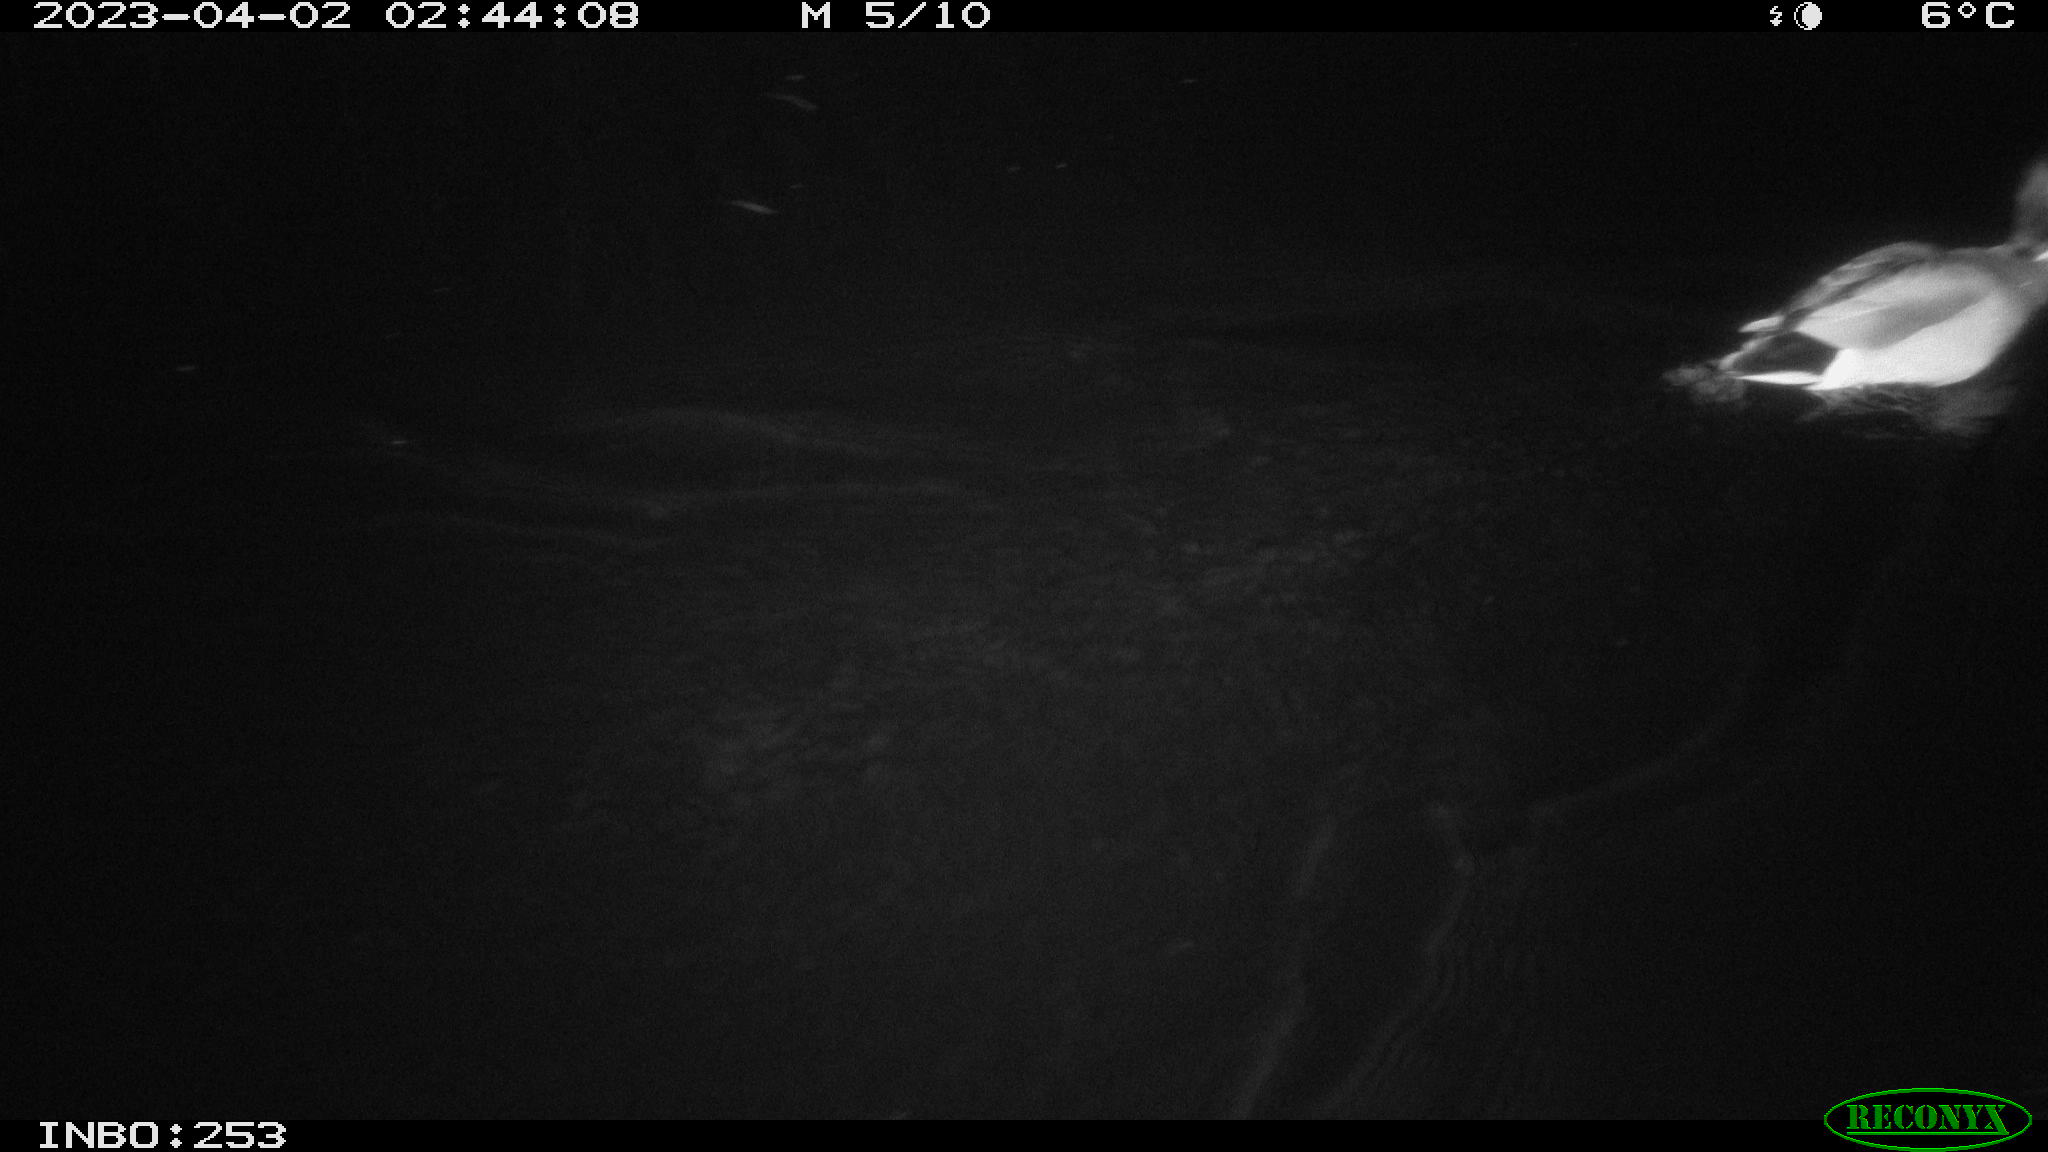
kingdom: Animalia
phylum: Chordata
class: Aves
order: Anseriformes
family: Anatidae
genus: Anas
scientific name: Anas
